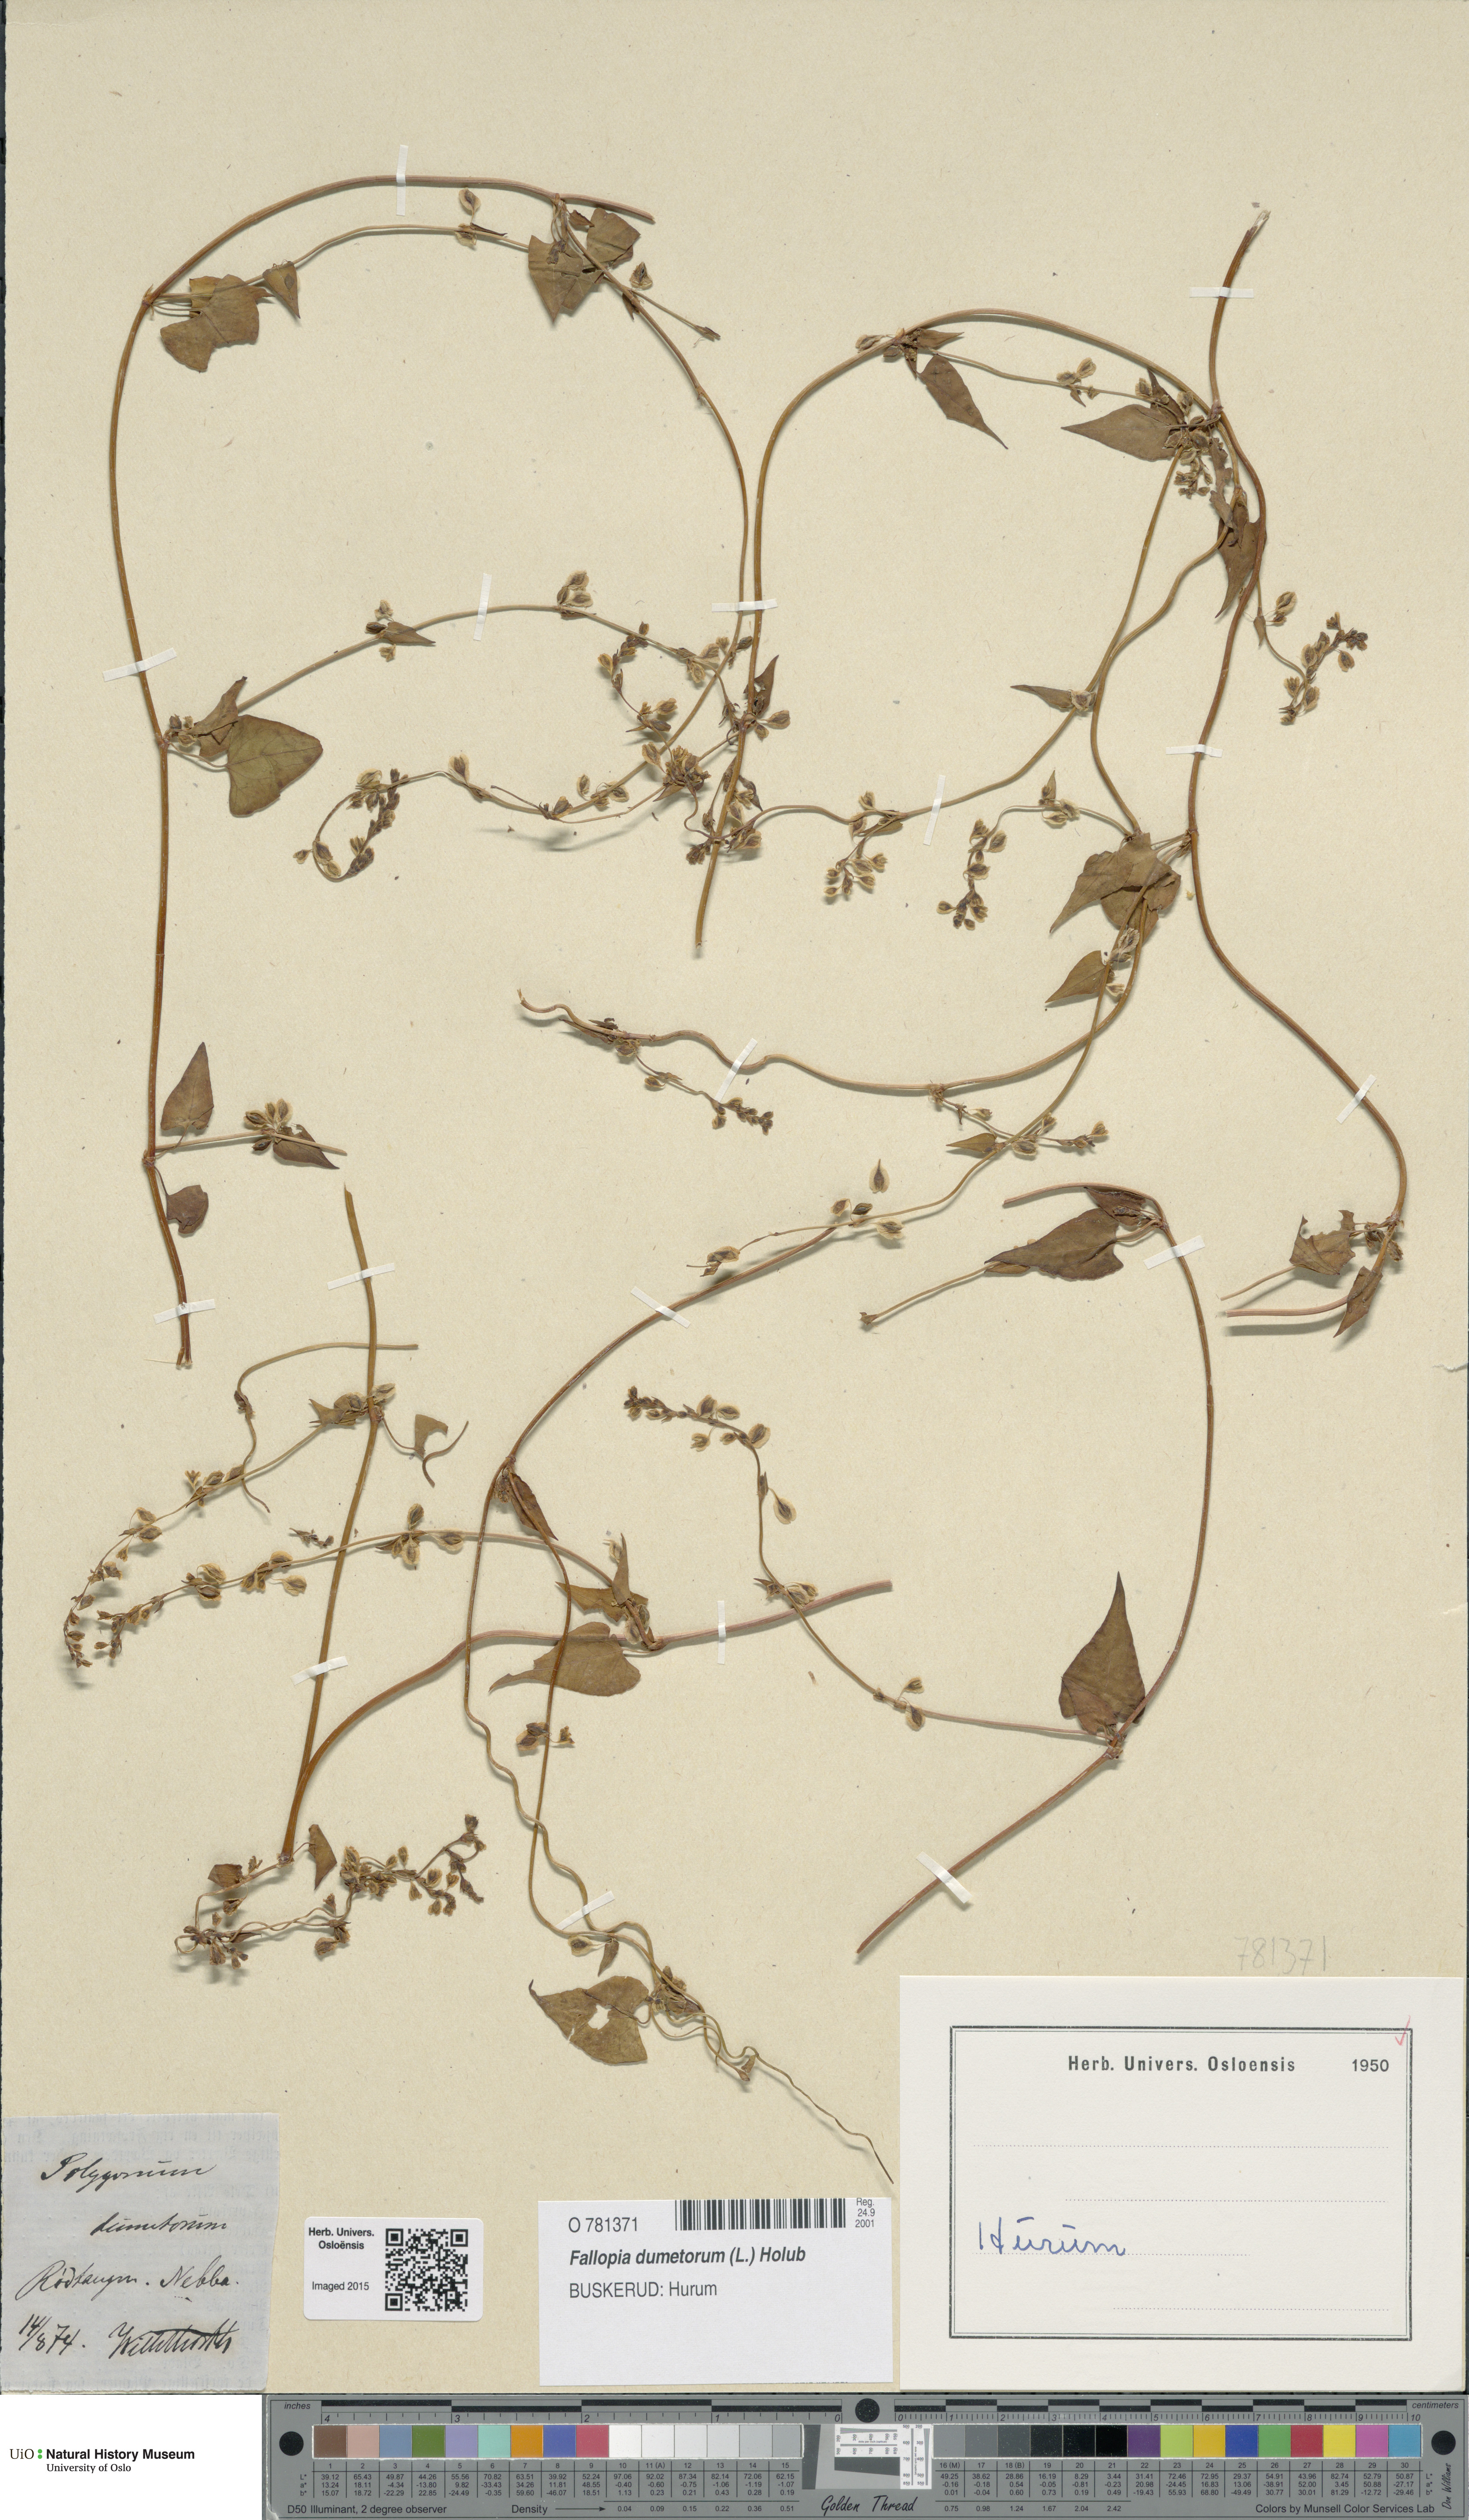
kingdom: Plantae
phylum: Tracheophyta
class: Magnoliopsida
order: Caryophyllales
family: Polygonaceae
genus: Fallopia
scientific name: Fallopia dumetorum
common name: Copse-bindweed
